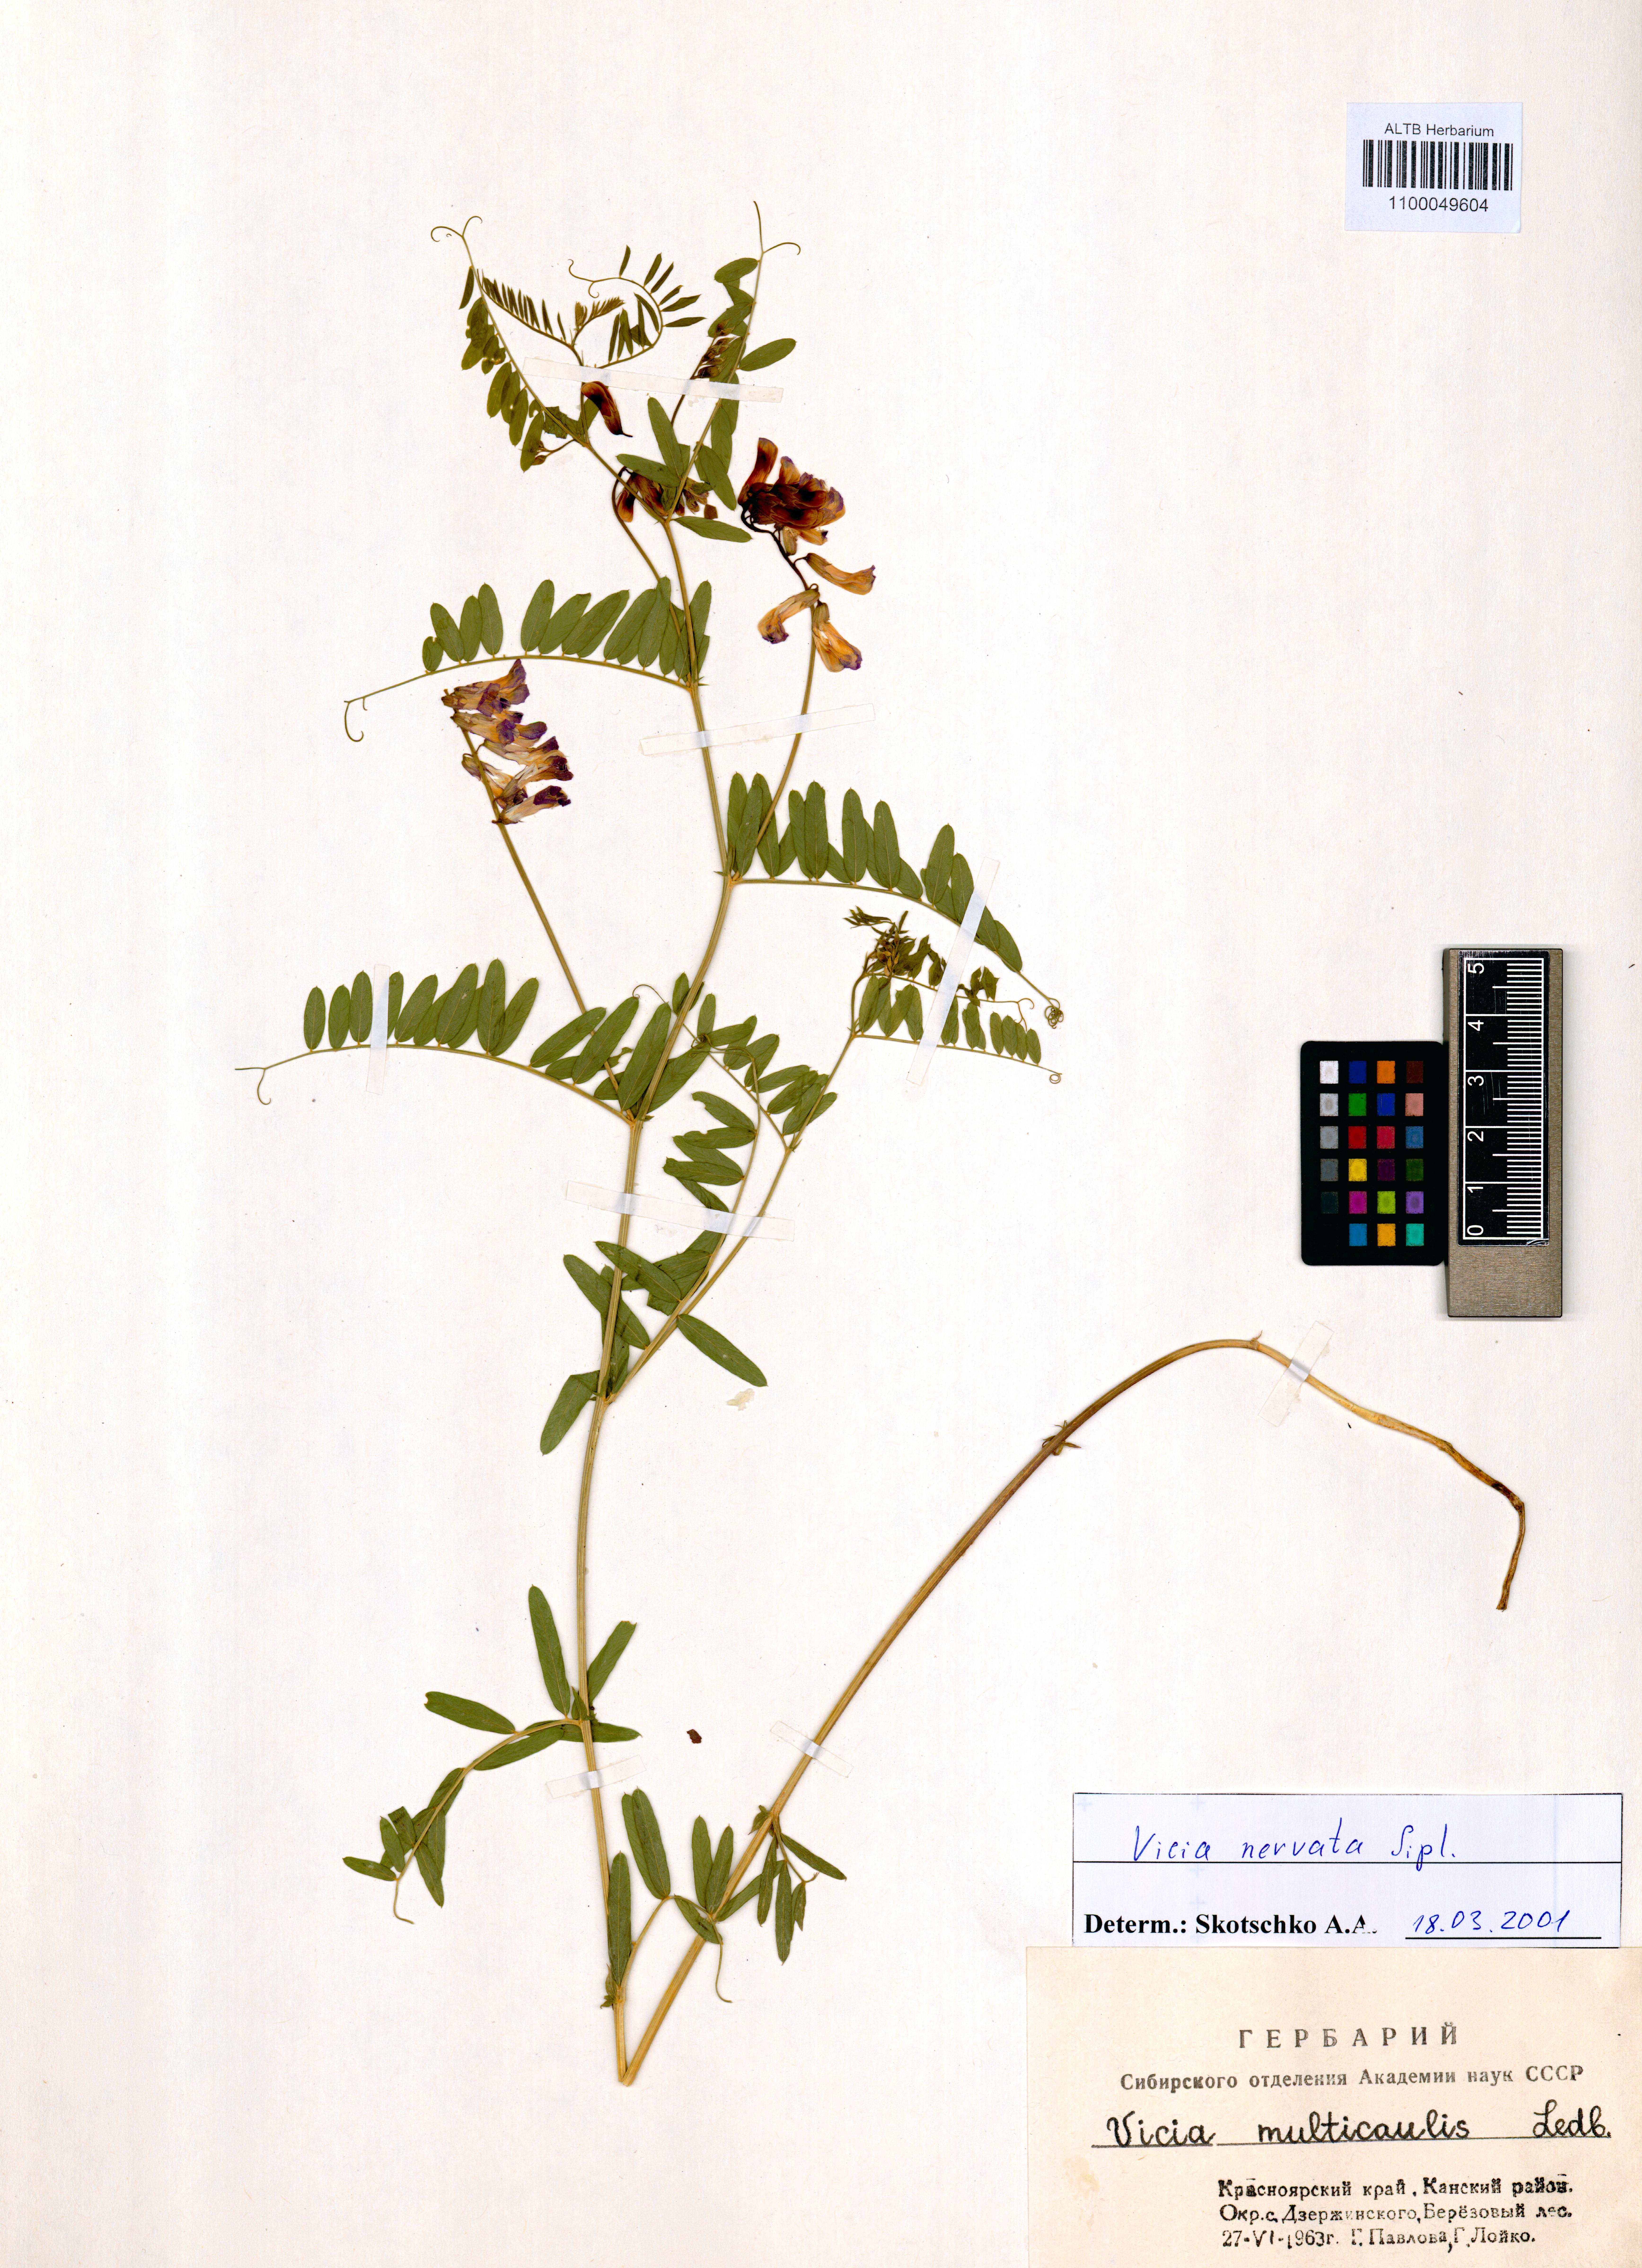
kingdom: Plantae
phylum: Tracheophyta
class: Magnoliopsida
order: Fabales
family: Fabaceae
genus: Vicia
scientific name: Vicia multicaulis
